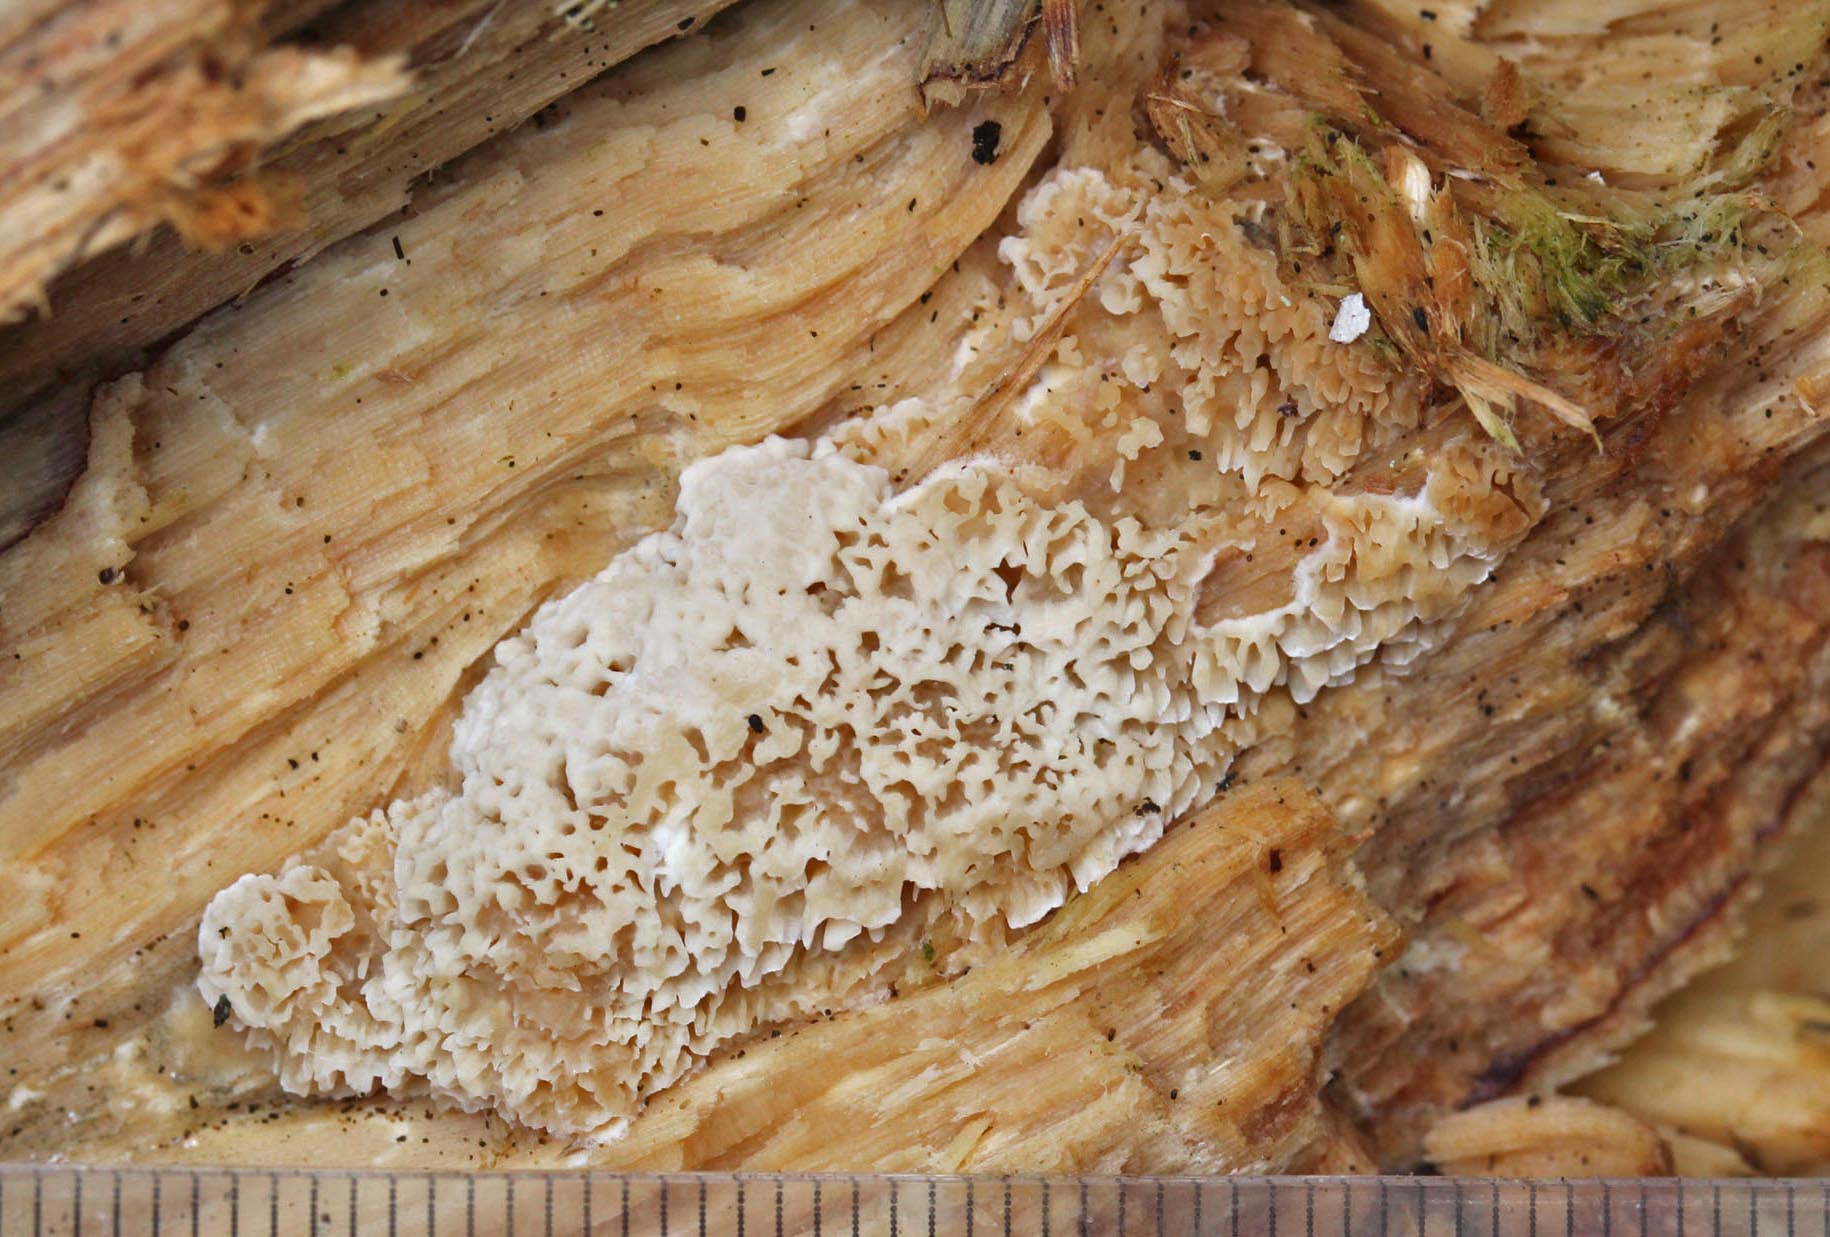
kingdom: Fungi
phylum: Basidiomycota
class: Agaricomycetes
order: Polyporales
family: Cerrenaceae
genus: Raduliporus
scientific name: Raduliporus aneirinus
